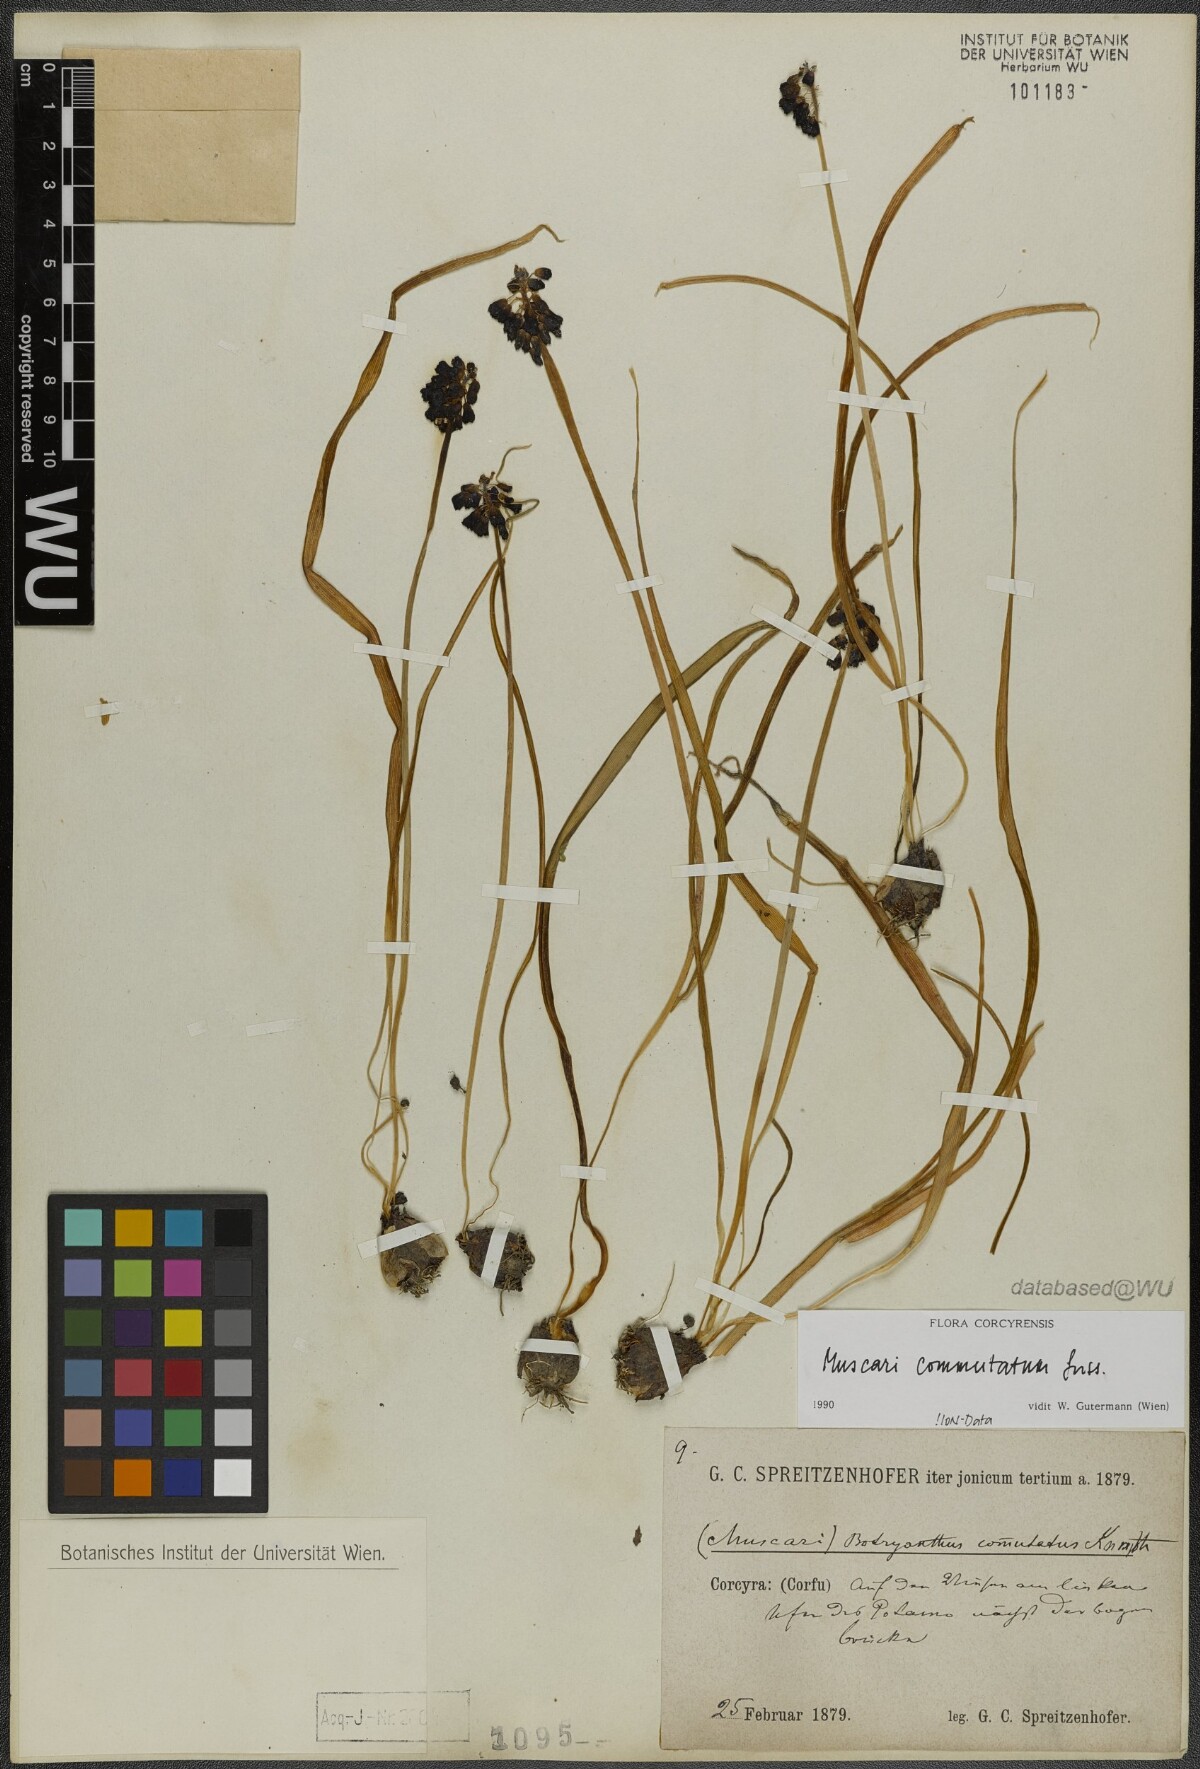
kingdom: Plantae
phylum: Tracheophyta
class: Liliopsida
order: Asparagales
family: Asparagaceae
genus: Muscari
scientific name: Muscari commutatum
